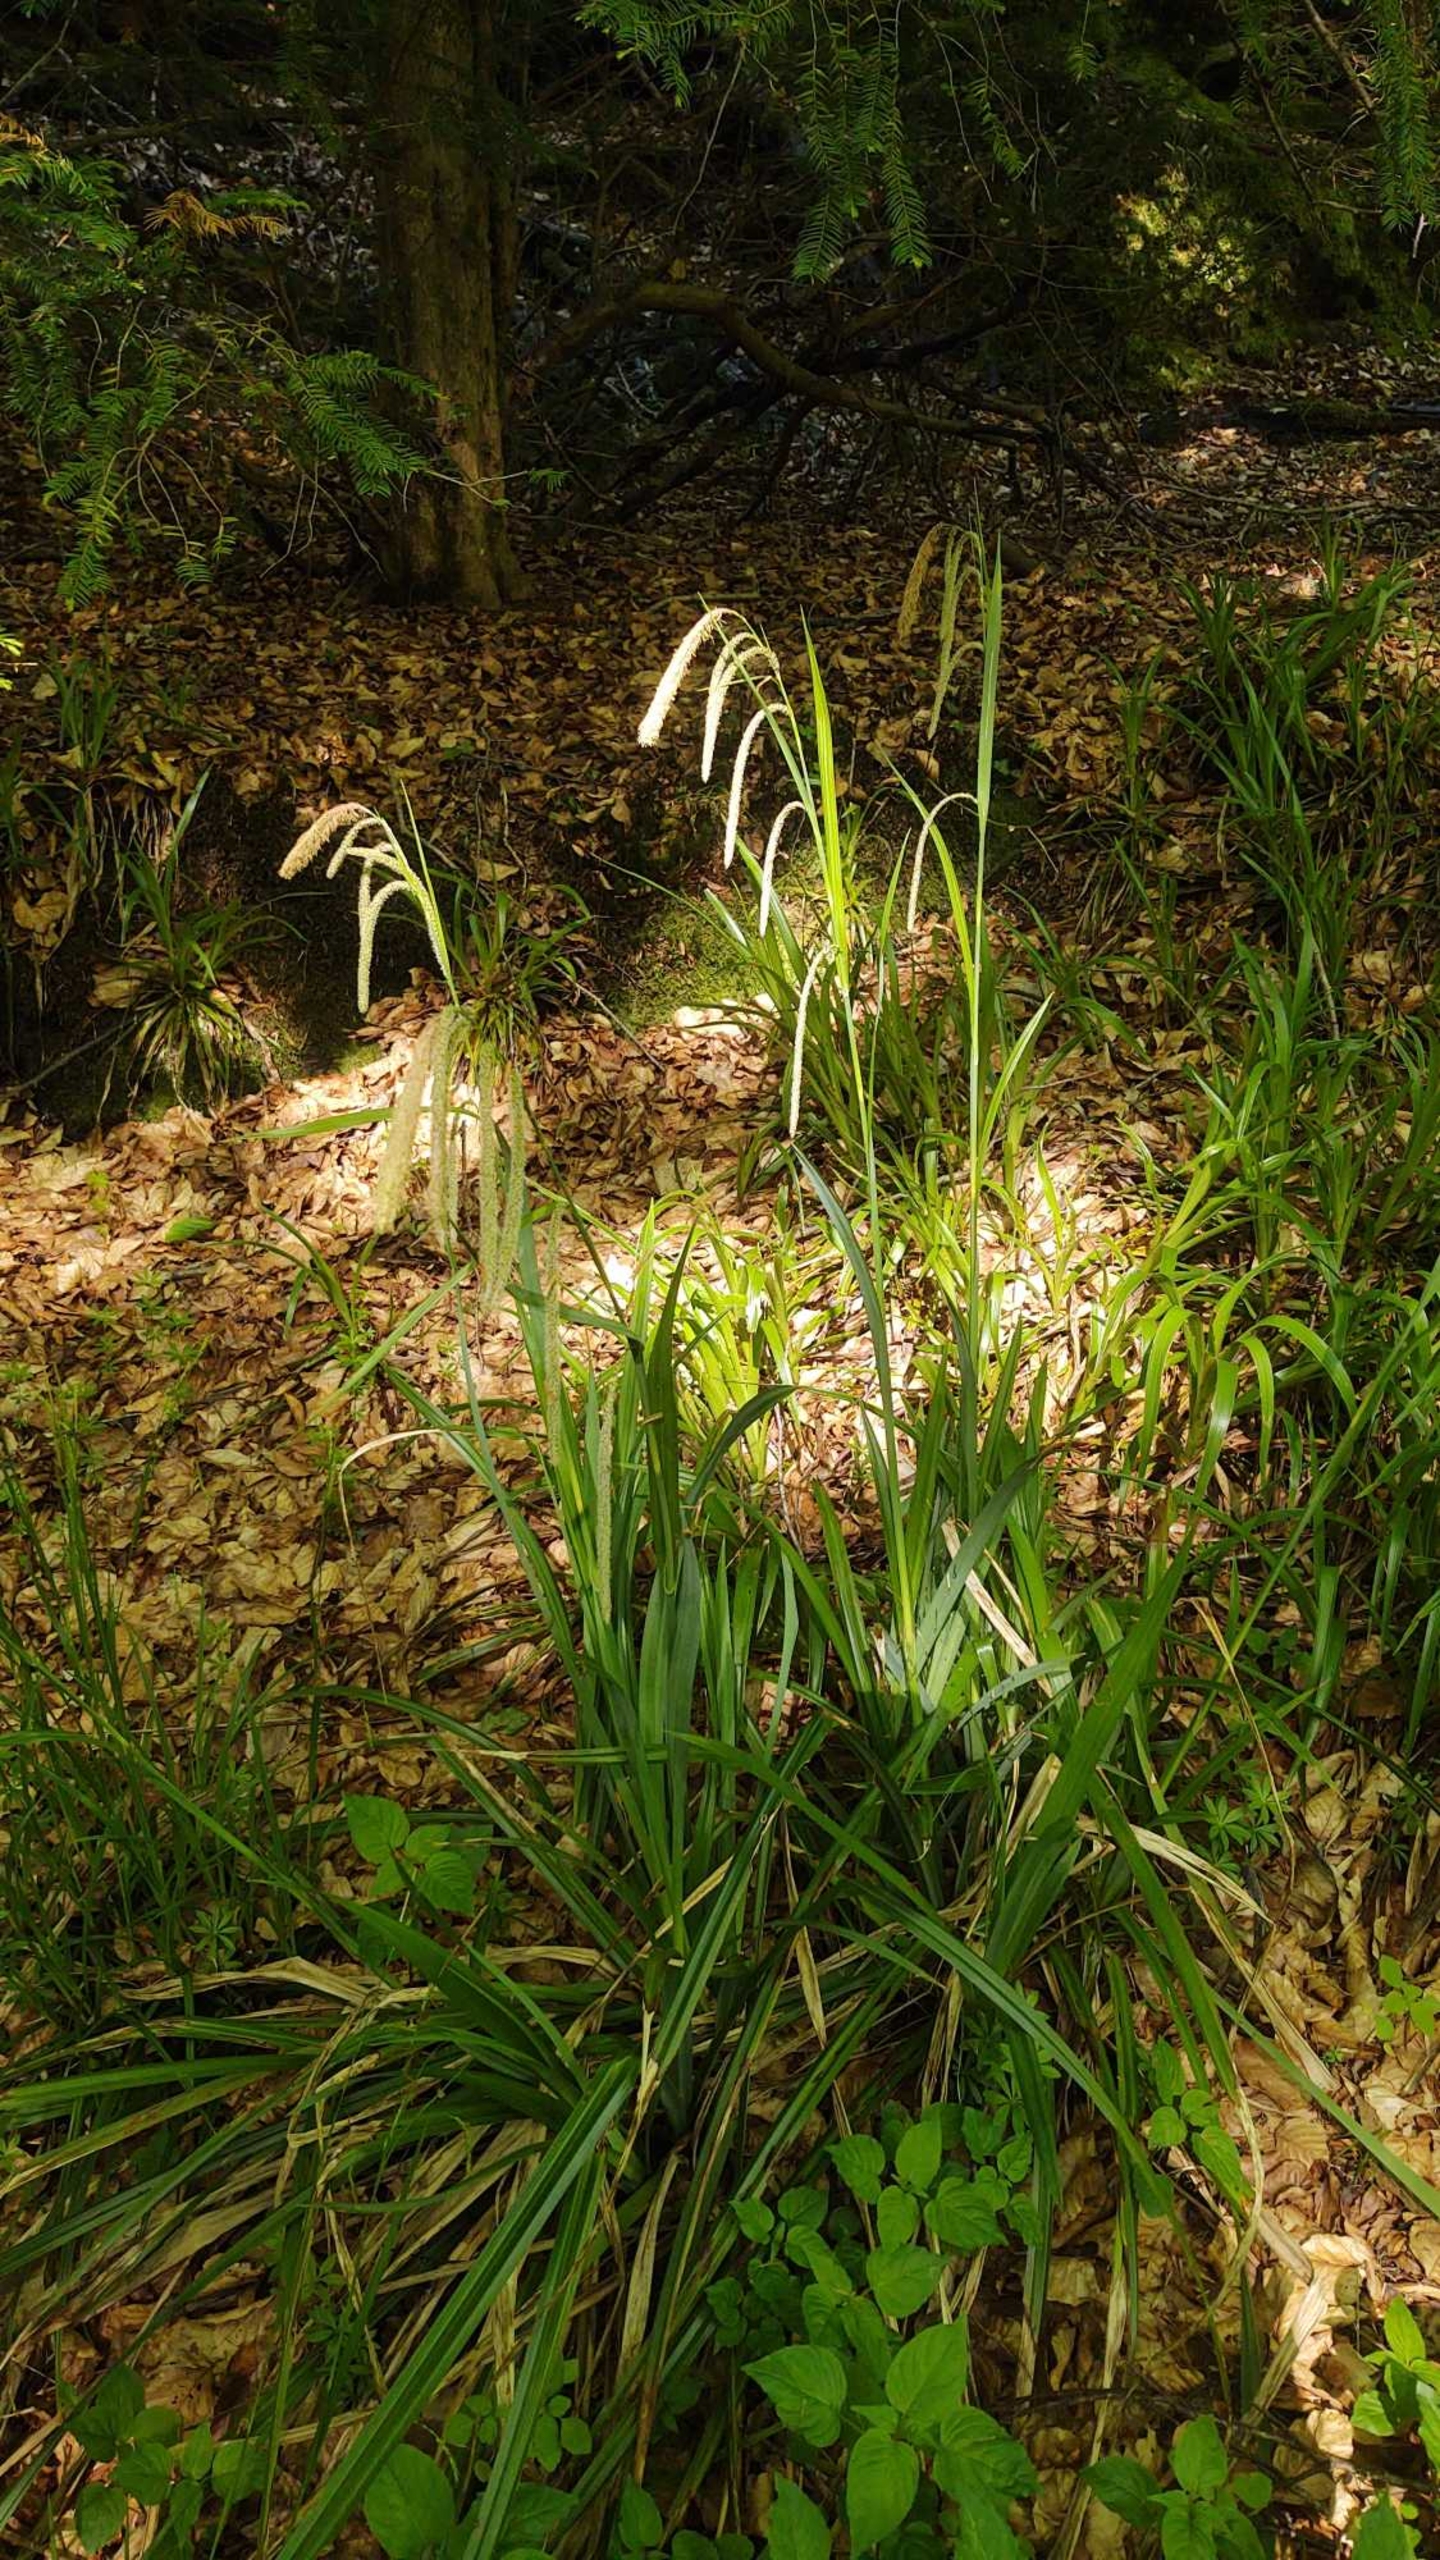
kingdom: Plantae
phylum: Tracheophyta
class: Liliopsida
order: Poales
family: Cyperaceae
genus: Carex
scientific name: Carex pendula
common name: Kæmpe-star
